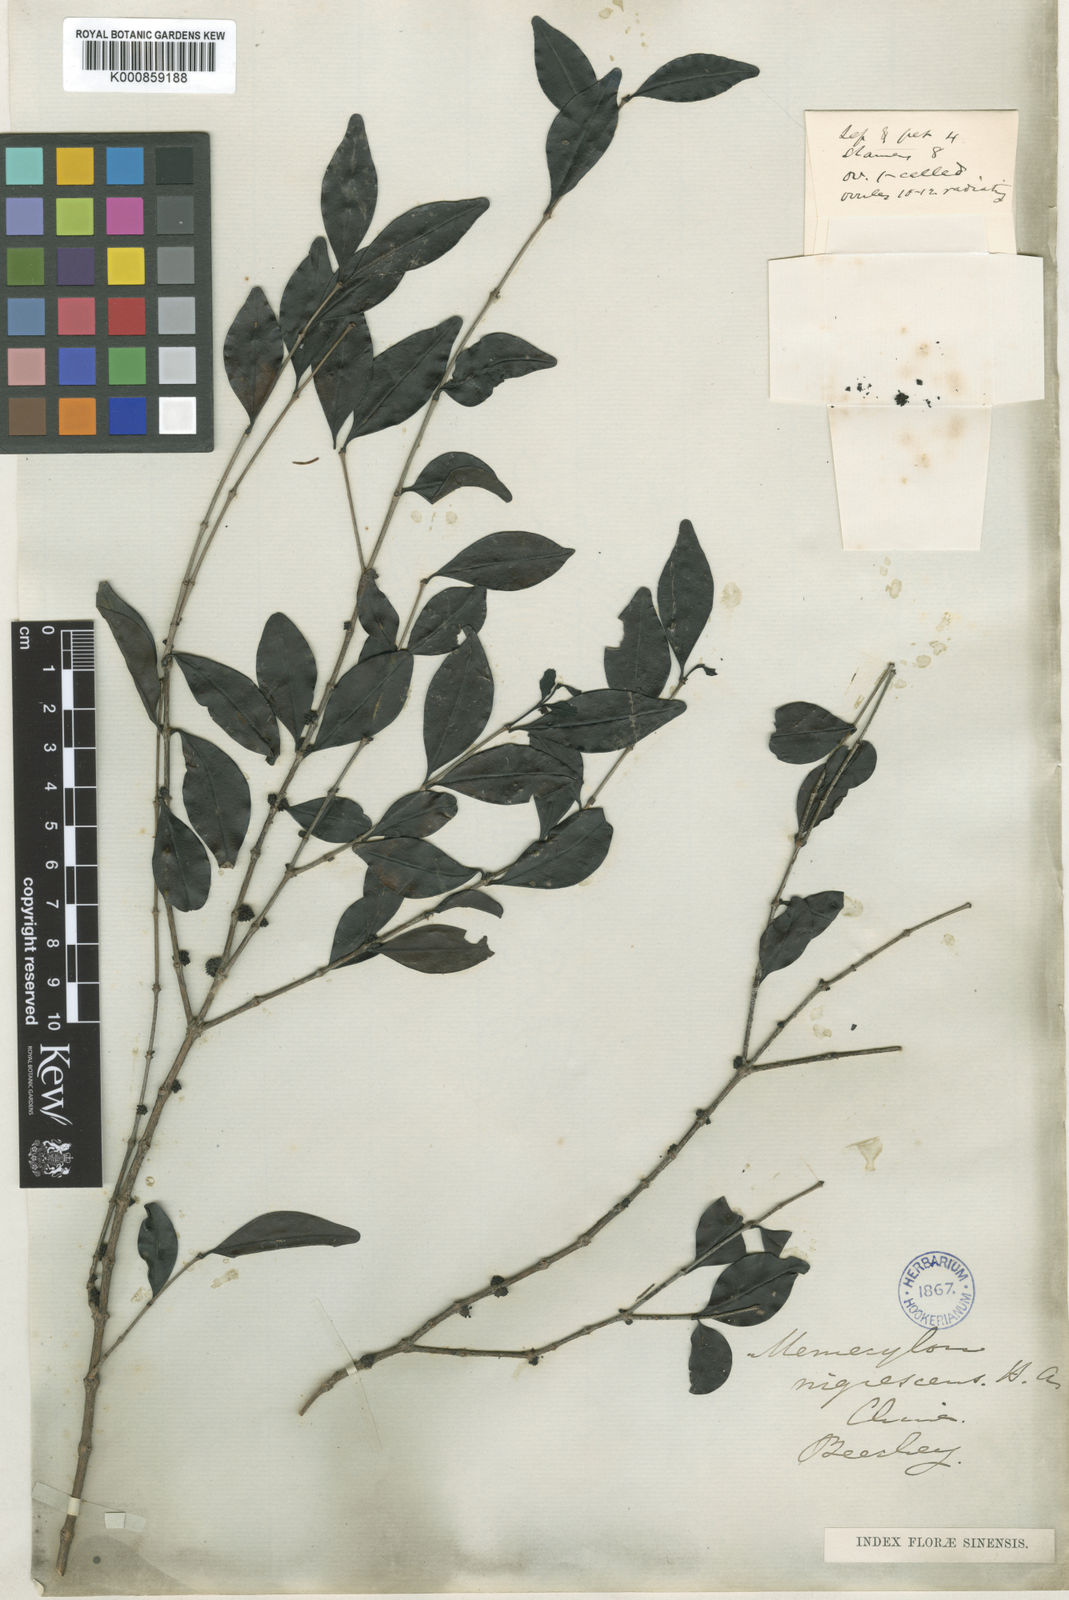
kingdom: Plantae
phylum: Tracheophyta
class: Magnoliopsida
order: Myrtales
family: Melastomataceae
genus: Memecylon
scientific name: Memecylon nigrescens
